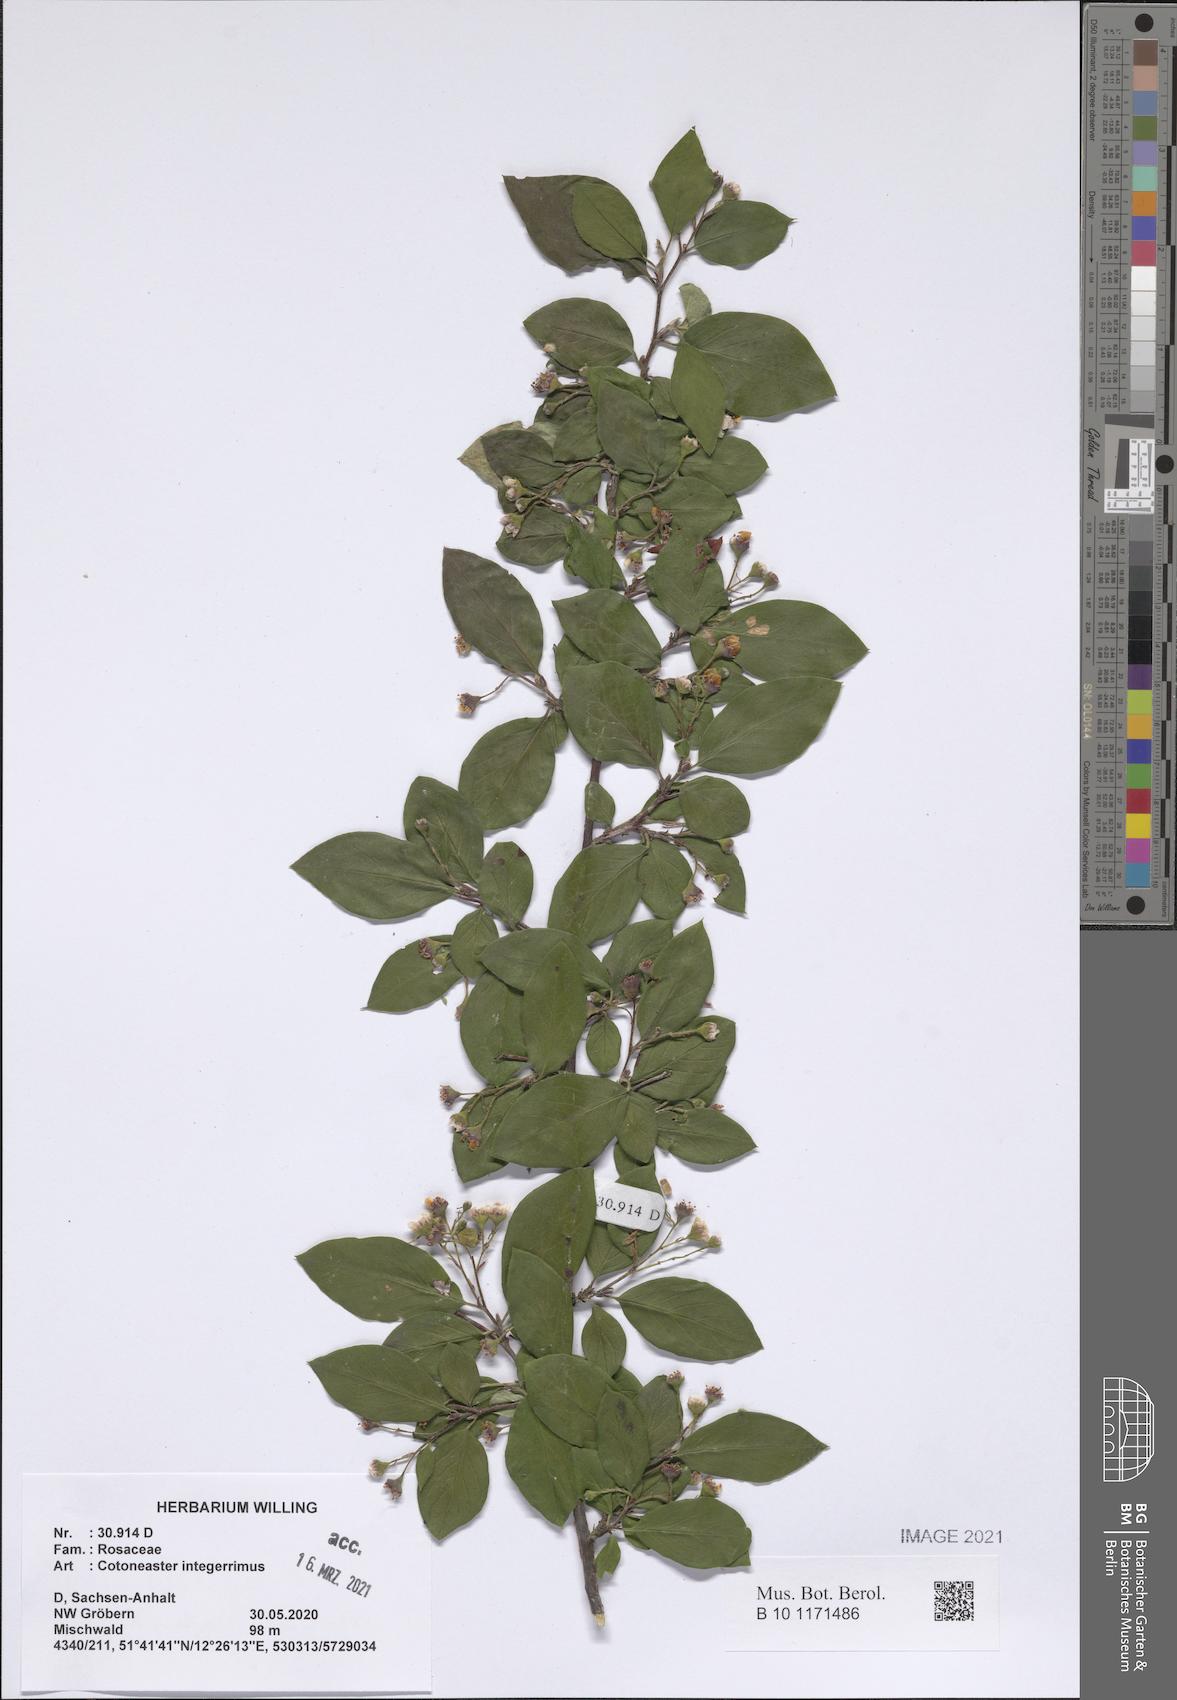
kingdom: Plantae
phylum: Tracheophyta
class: Magnoliopsida
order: Rosales
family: Rosaceae
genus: Cotoneaster
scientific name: Cotoneaster integerrimus
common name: Wild cotoneaster
